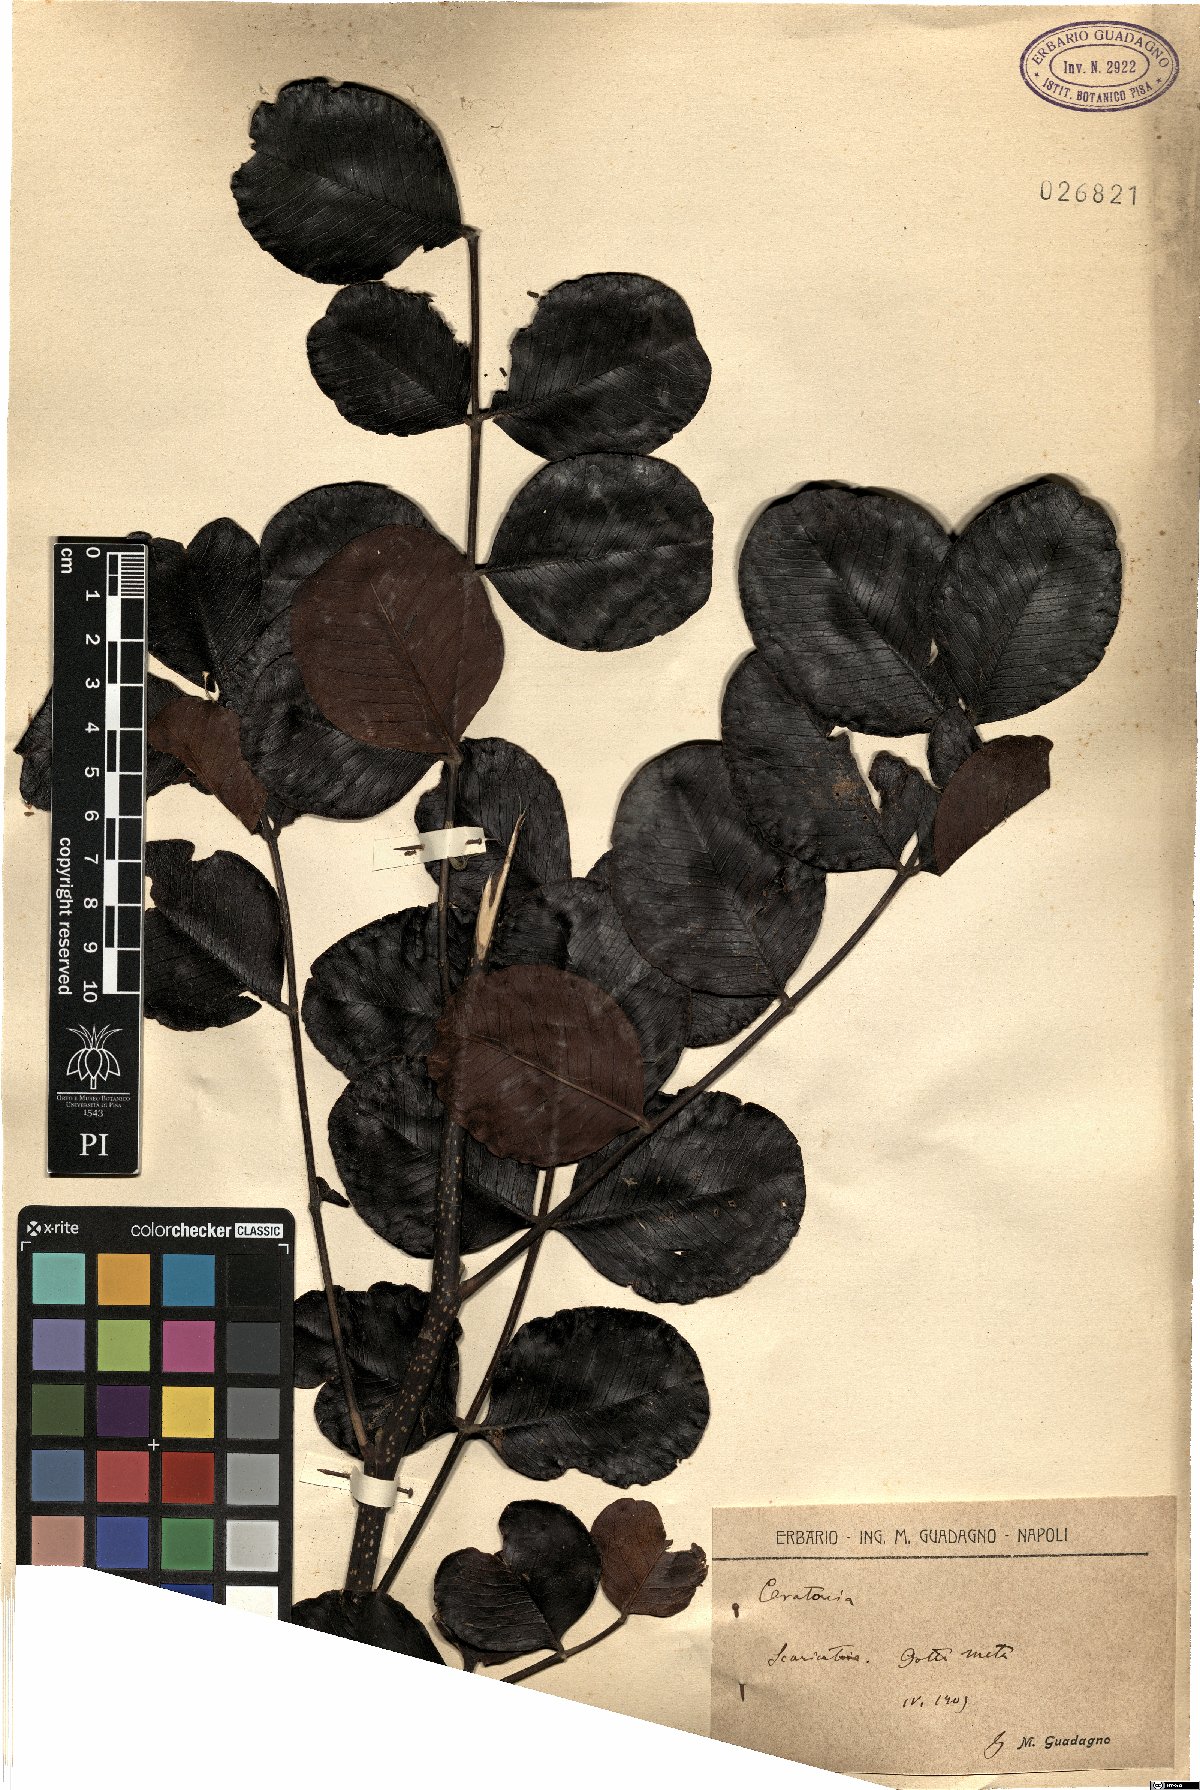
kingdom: Plantae
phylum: Tracheophyta
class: Magnoliopsida
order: Fabales
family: Fabaceae
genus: Ceratonia
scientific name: Ceratonia siliqua
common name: Carob
